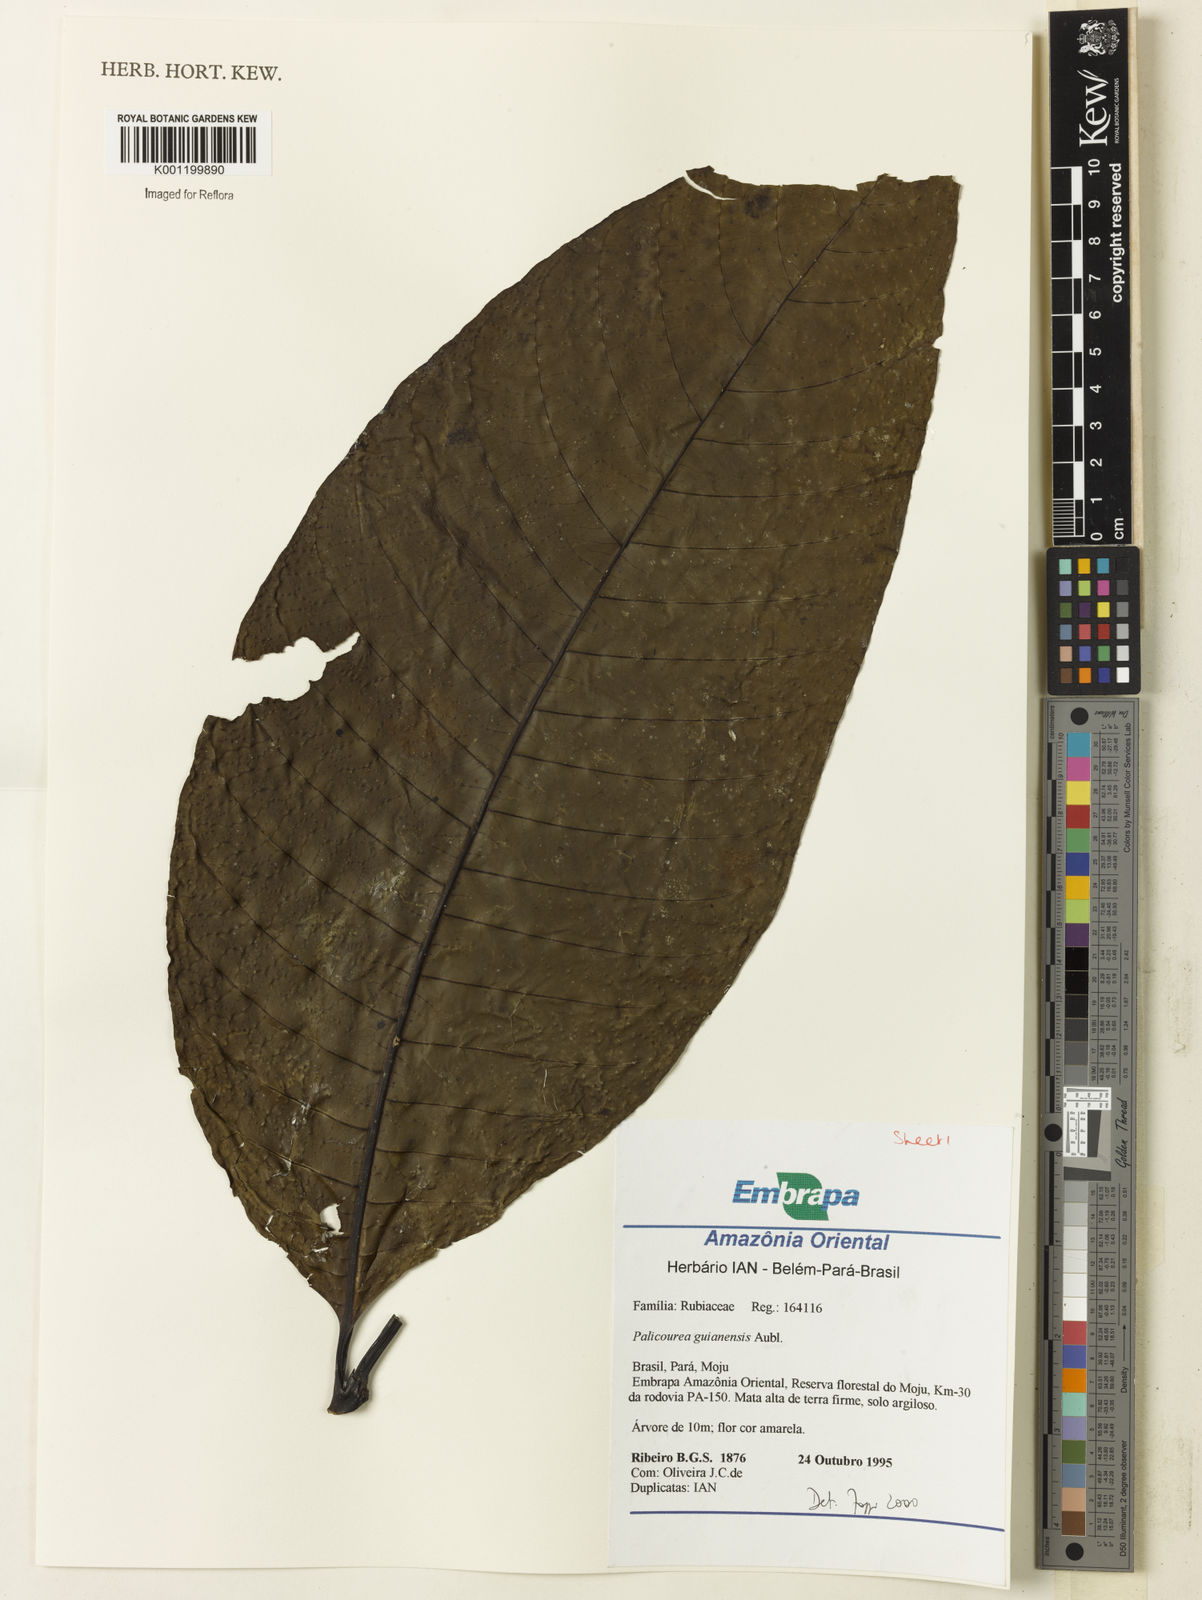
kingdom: Plantae
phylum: Tracheophyta
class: Magnoliopsida
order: Gentianales
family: Rubiaceae
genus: Palicourea
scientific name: Palicourea guianensis
